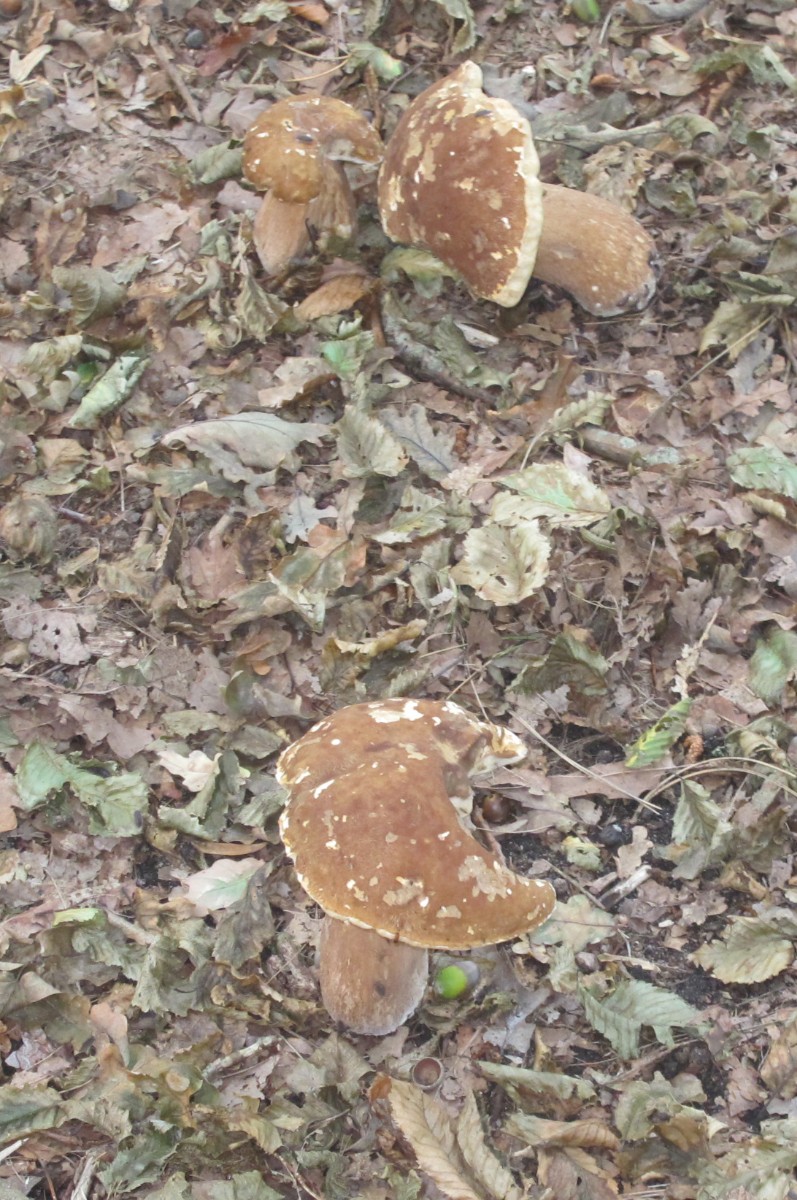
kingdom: Fungi
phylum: Basidiomycota
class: Agaricomycetes
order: Boletales
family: Boletaceae
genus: Boletus
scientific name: Boletus
